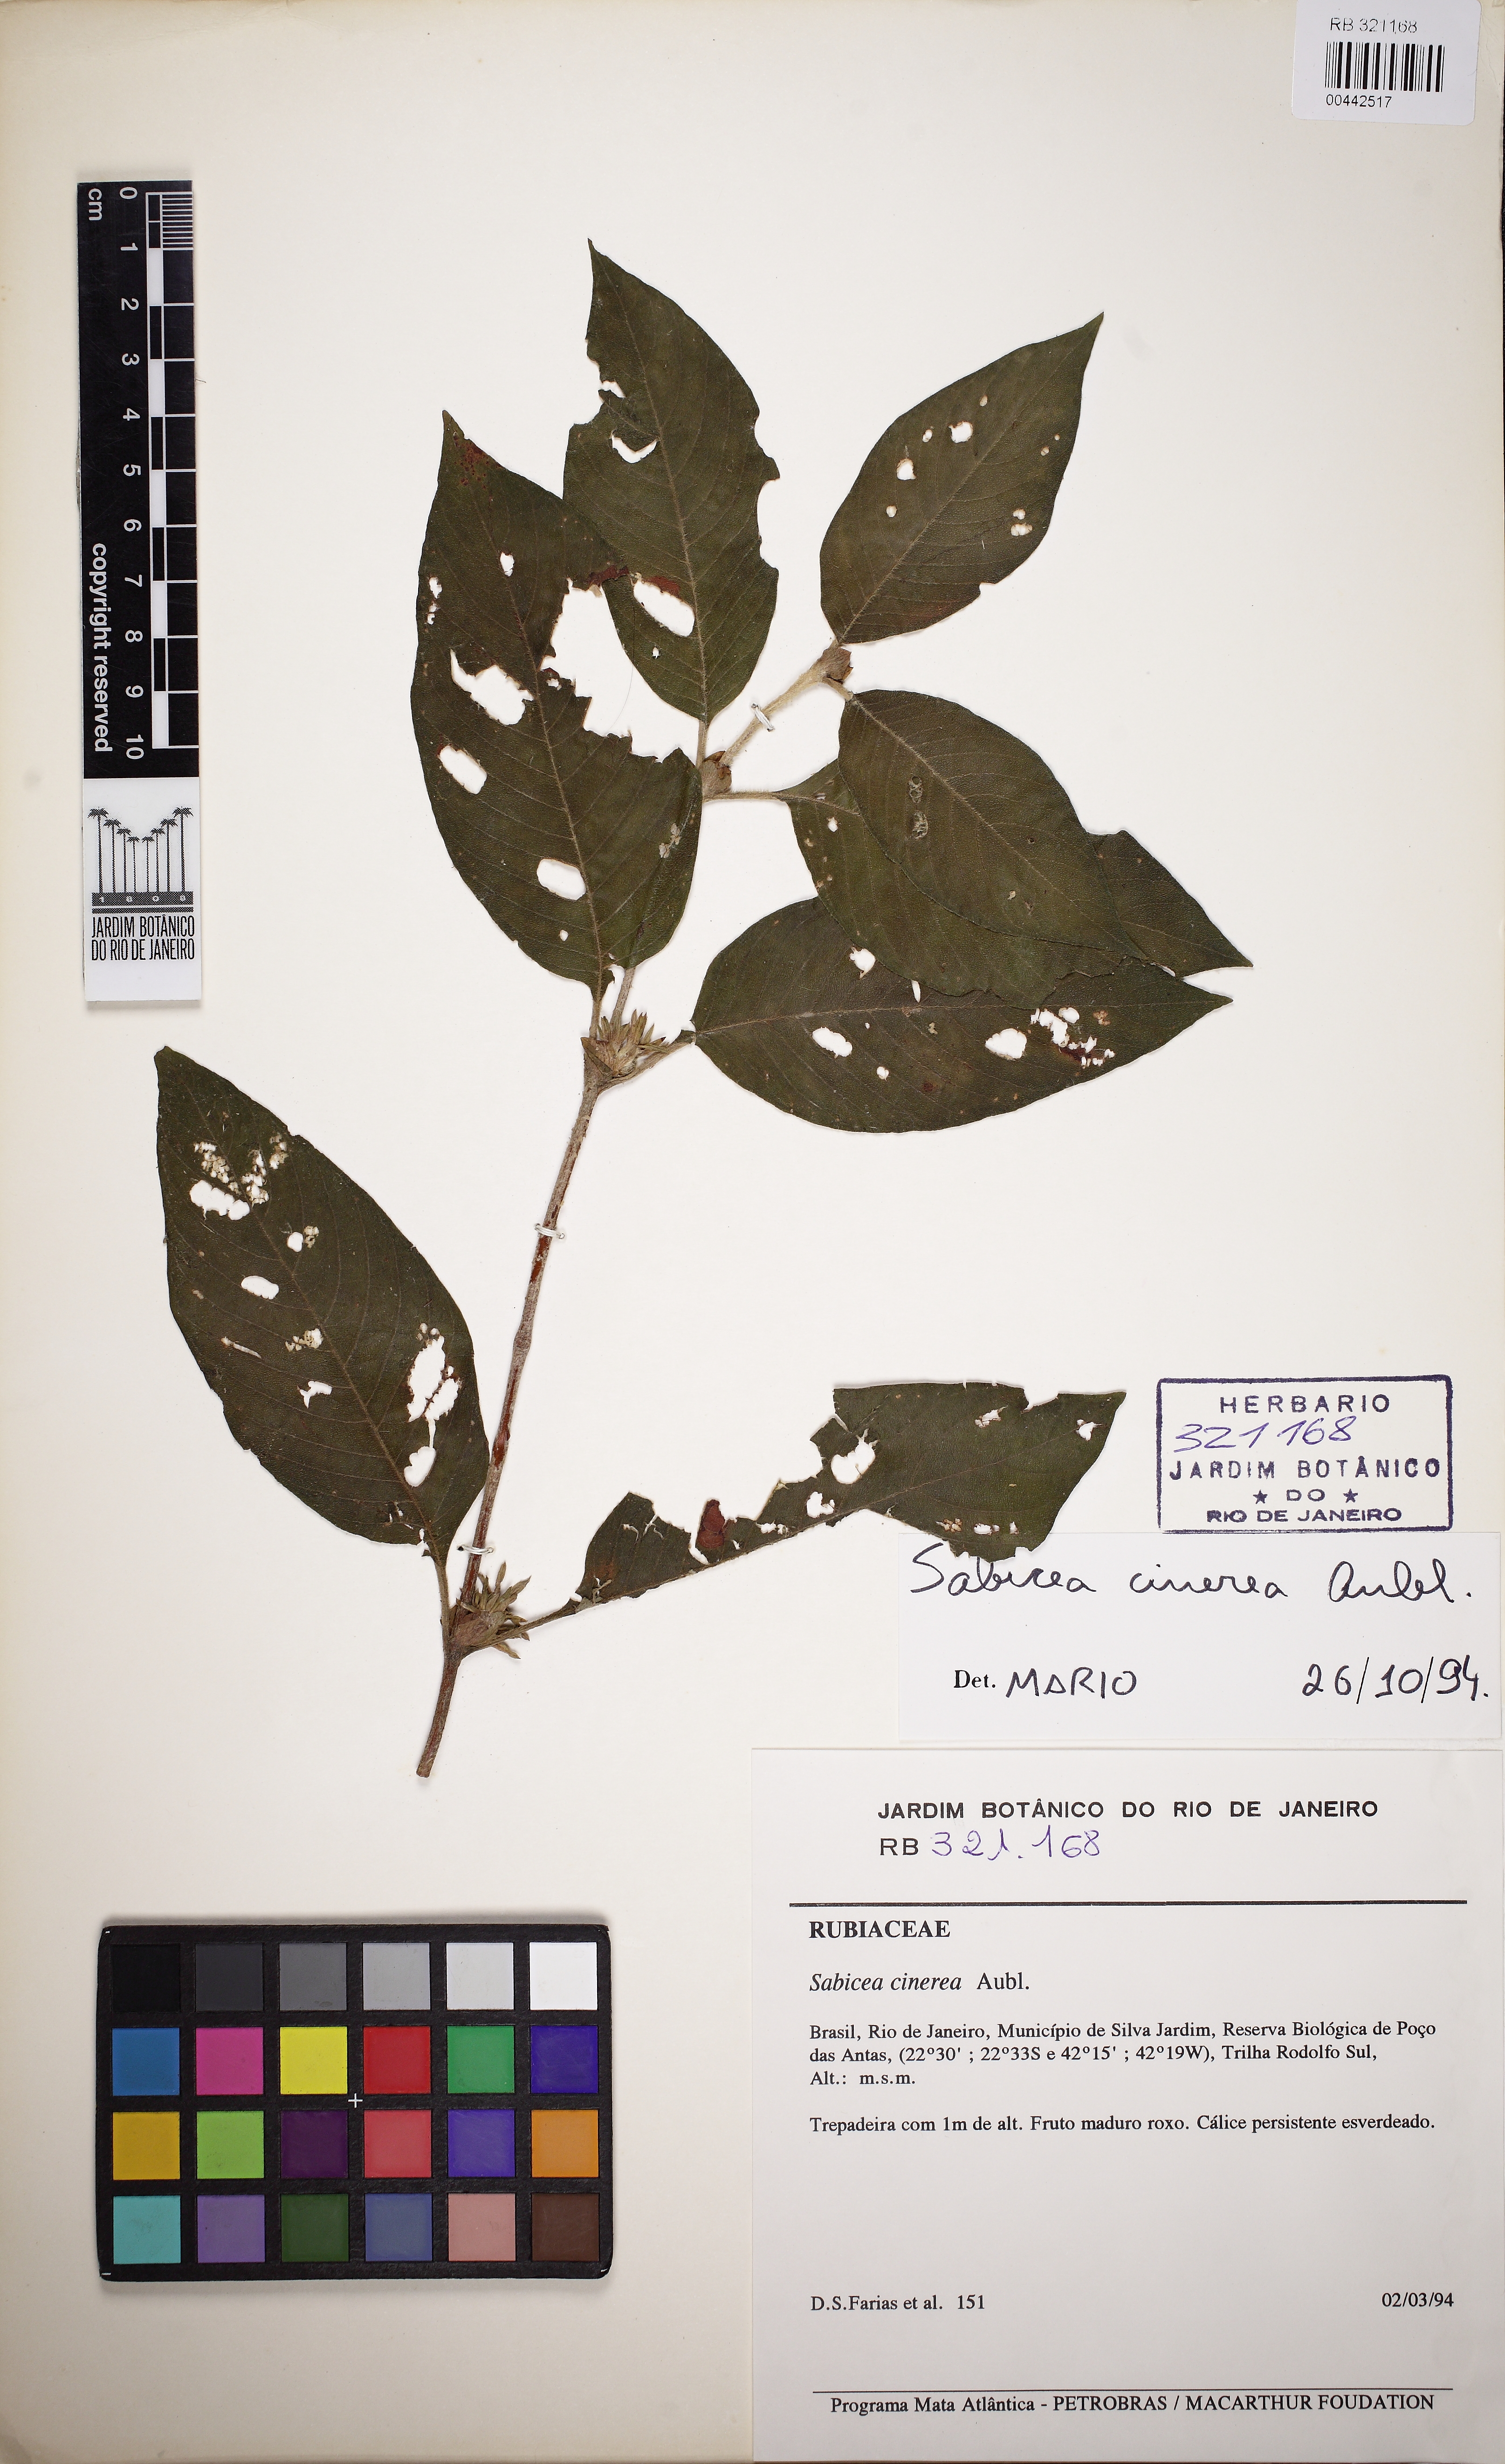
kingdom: Plantae
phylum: Tracheophyta
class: Magnoliopsida
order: Gentianales
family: Rubiaceae
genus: Sabicea
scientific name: Sabicea cinerea
